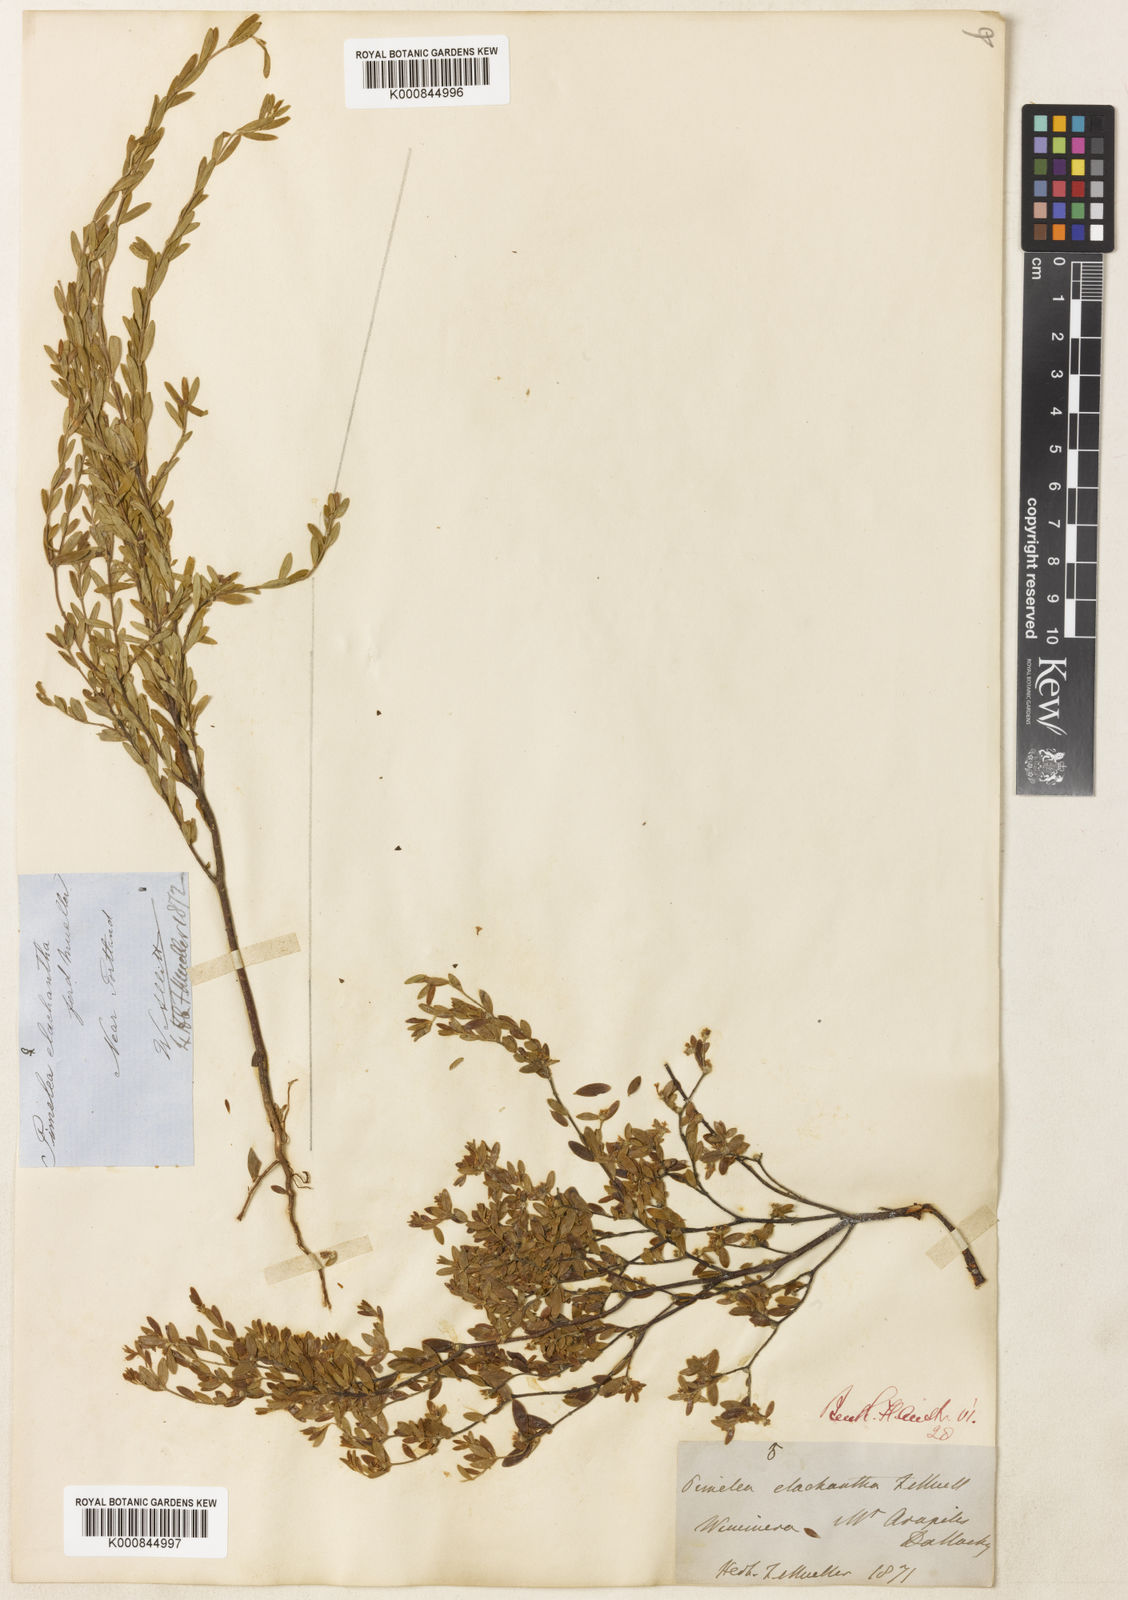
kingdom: Plantae
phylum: Tracheophyta
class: Magnoliopsida
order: Malvales
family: Thymelaeaceae
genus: Pimelea
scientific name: Pimelea hewardiana
